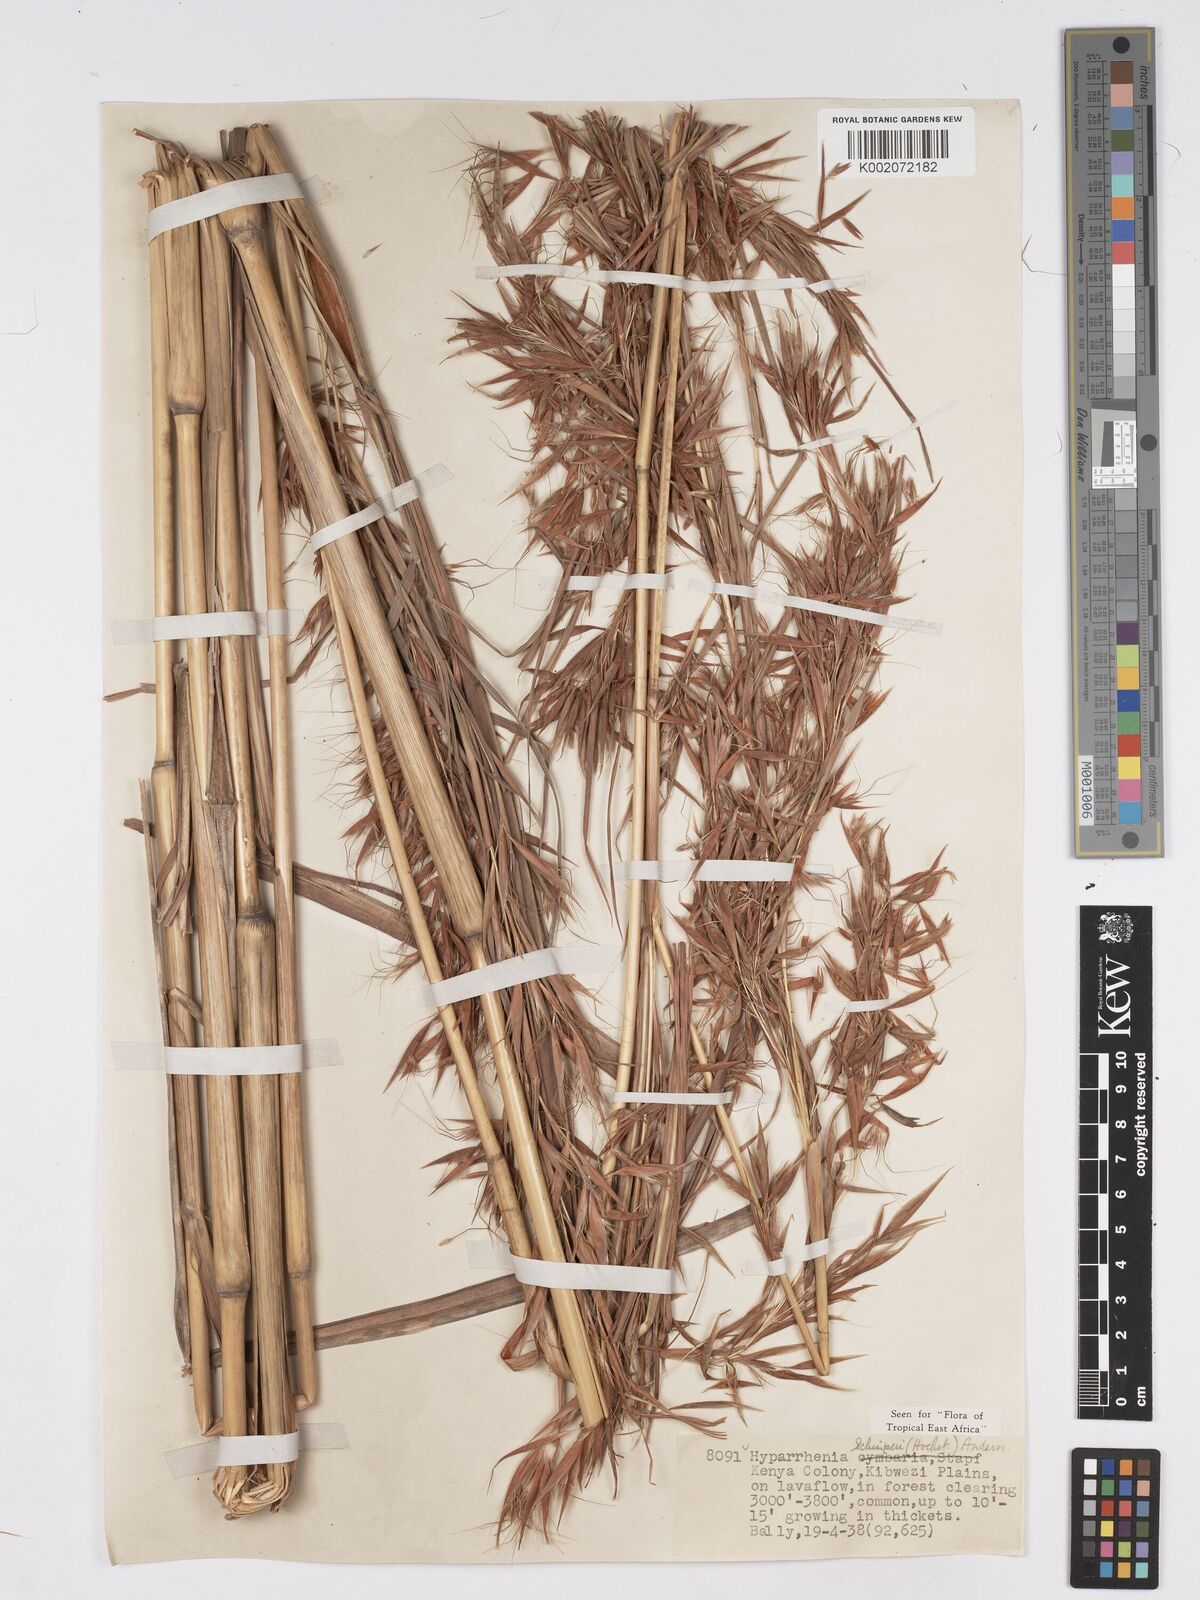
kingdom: Plantae
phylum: Tracheophyta
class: Liliopsida
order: Poales
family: Poaceae
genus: Hyparrhenia
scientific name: Hyparrhenia schimperi
